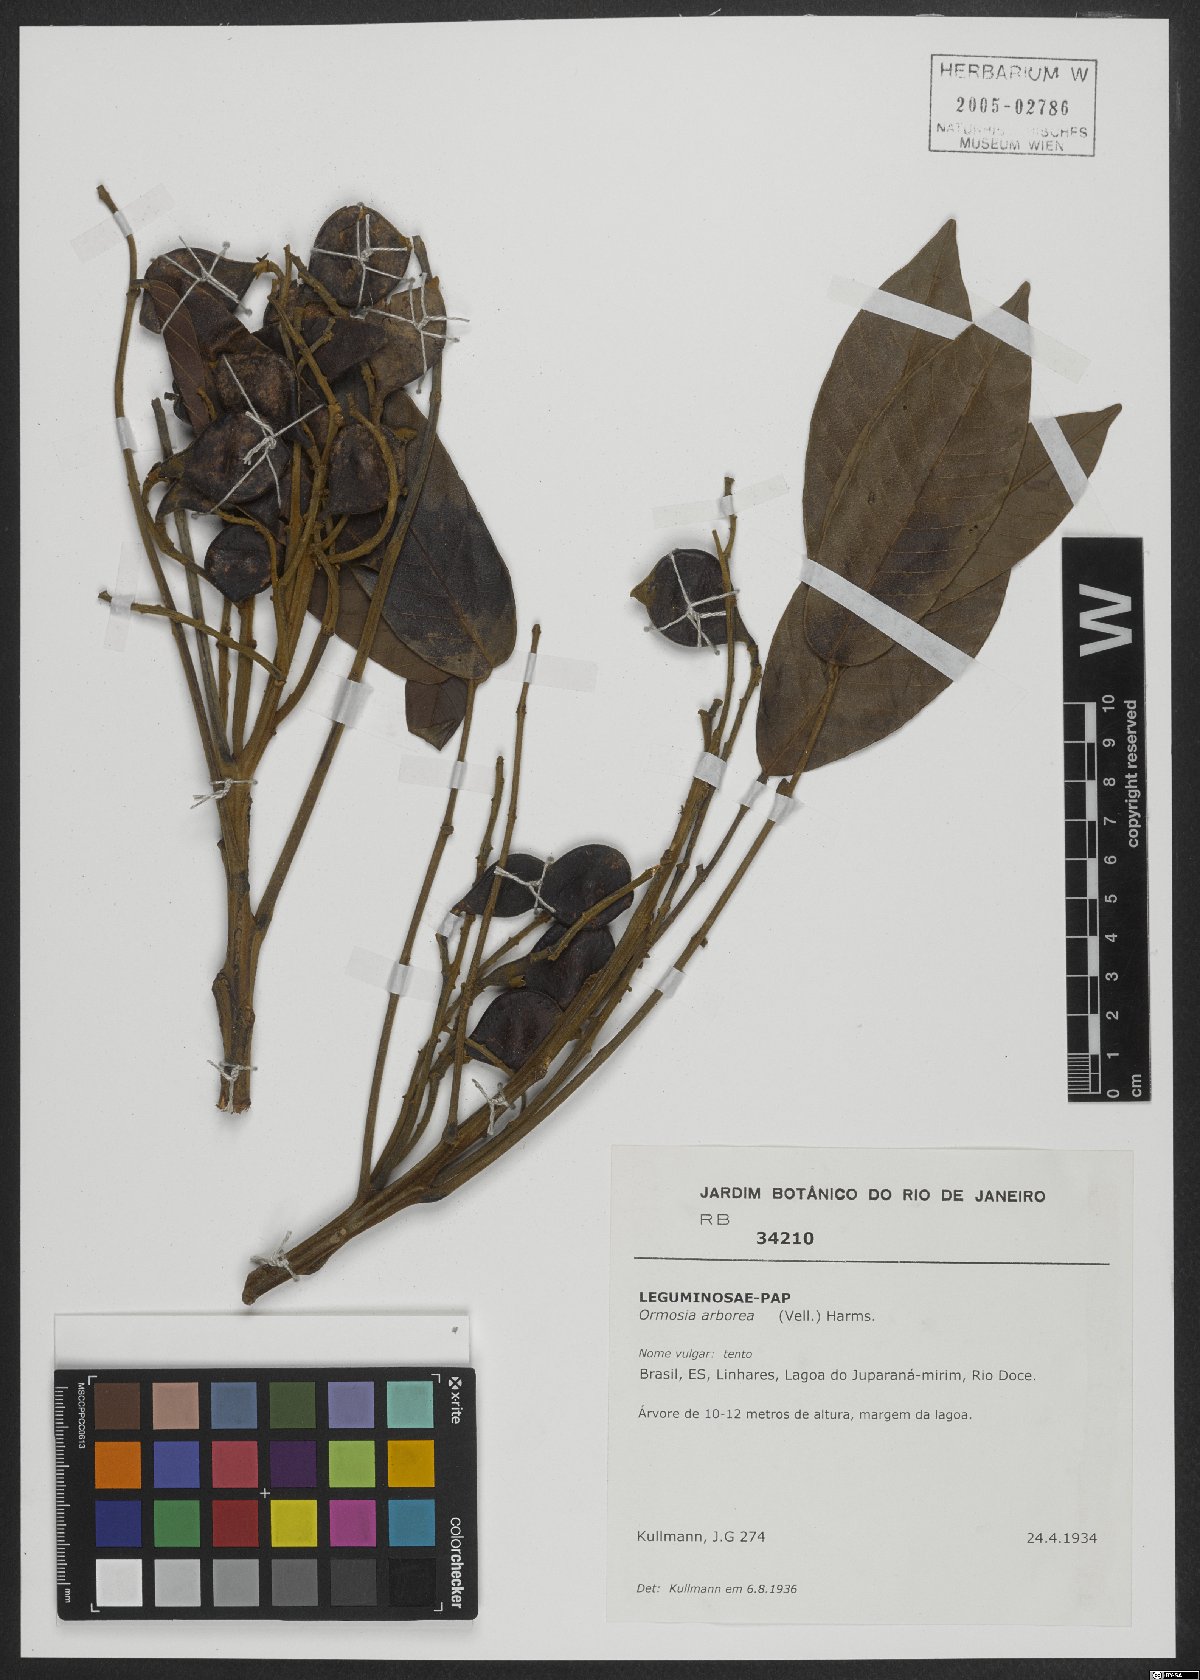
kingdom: Plantae
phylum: Tracheophyta
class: Magnoliopsida
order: Fabales
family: Fabaceae
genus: Ormosia
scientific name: Ormosia arborea
